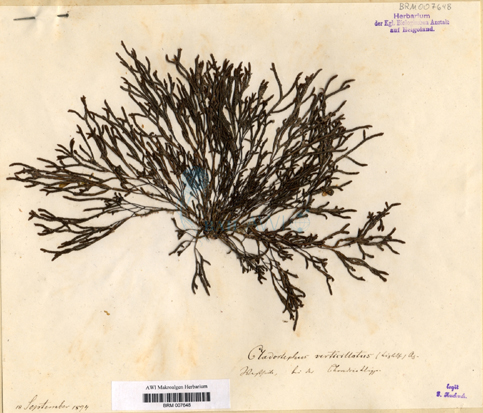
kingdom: Chromista
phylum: Ochrophyta
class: Phaeophyceae
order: Sphacelariales
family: Cladostephaceae
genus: Cladostephus
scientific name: Cladostephus spongiosus
